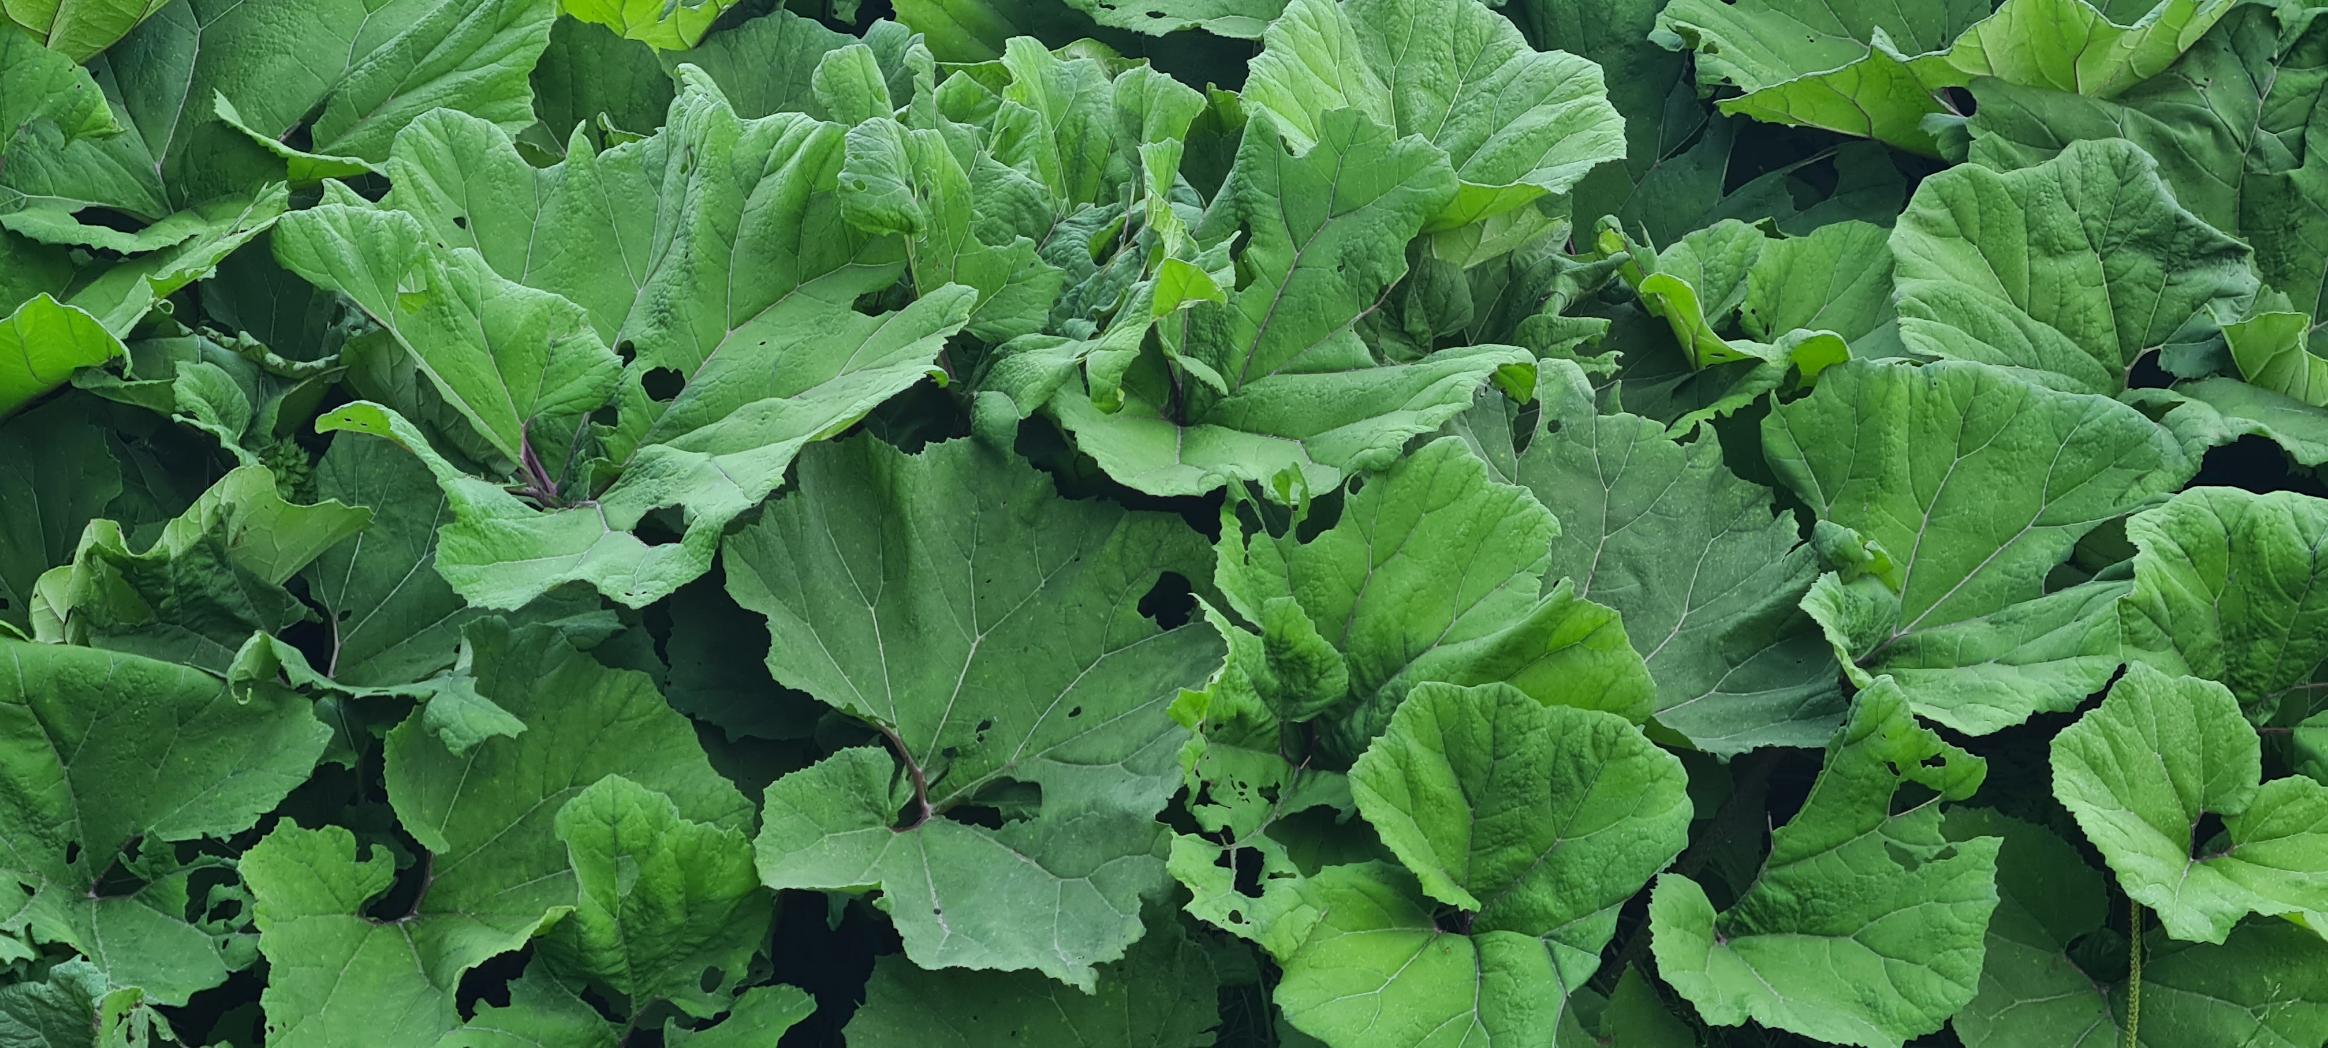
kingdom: Plantae
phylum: Tracheophyta
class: Magnoliopsida
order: Asterales
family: Asteraceae
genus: Petasites
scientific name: Petasites hybridus
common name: Rød hestehov
